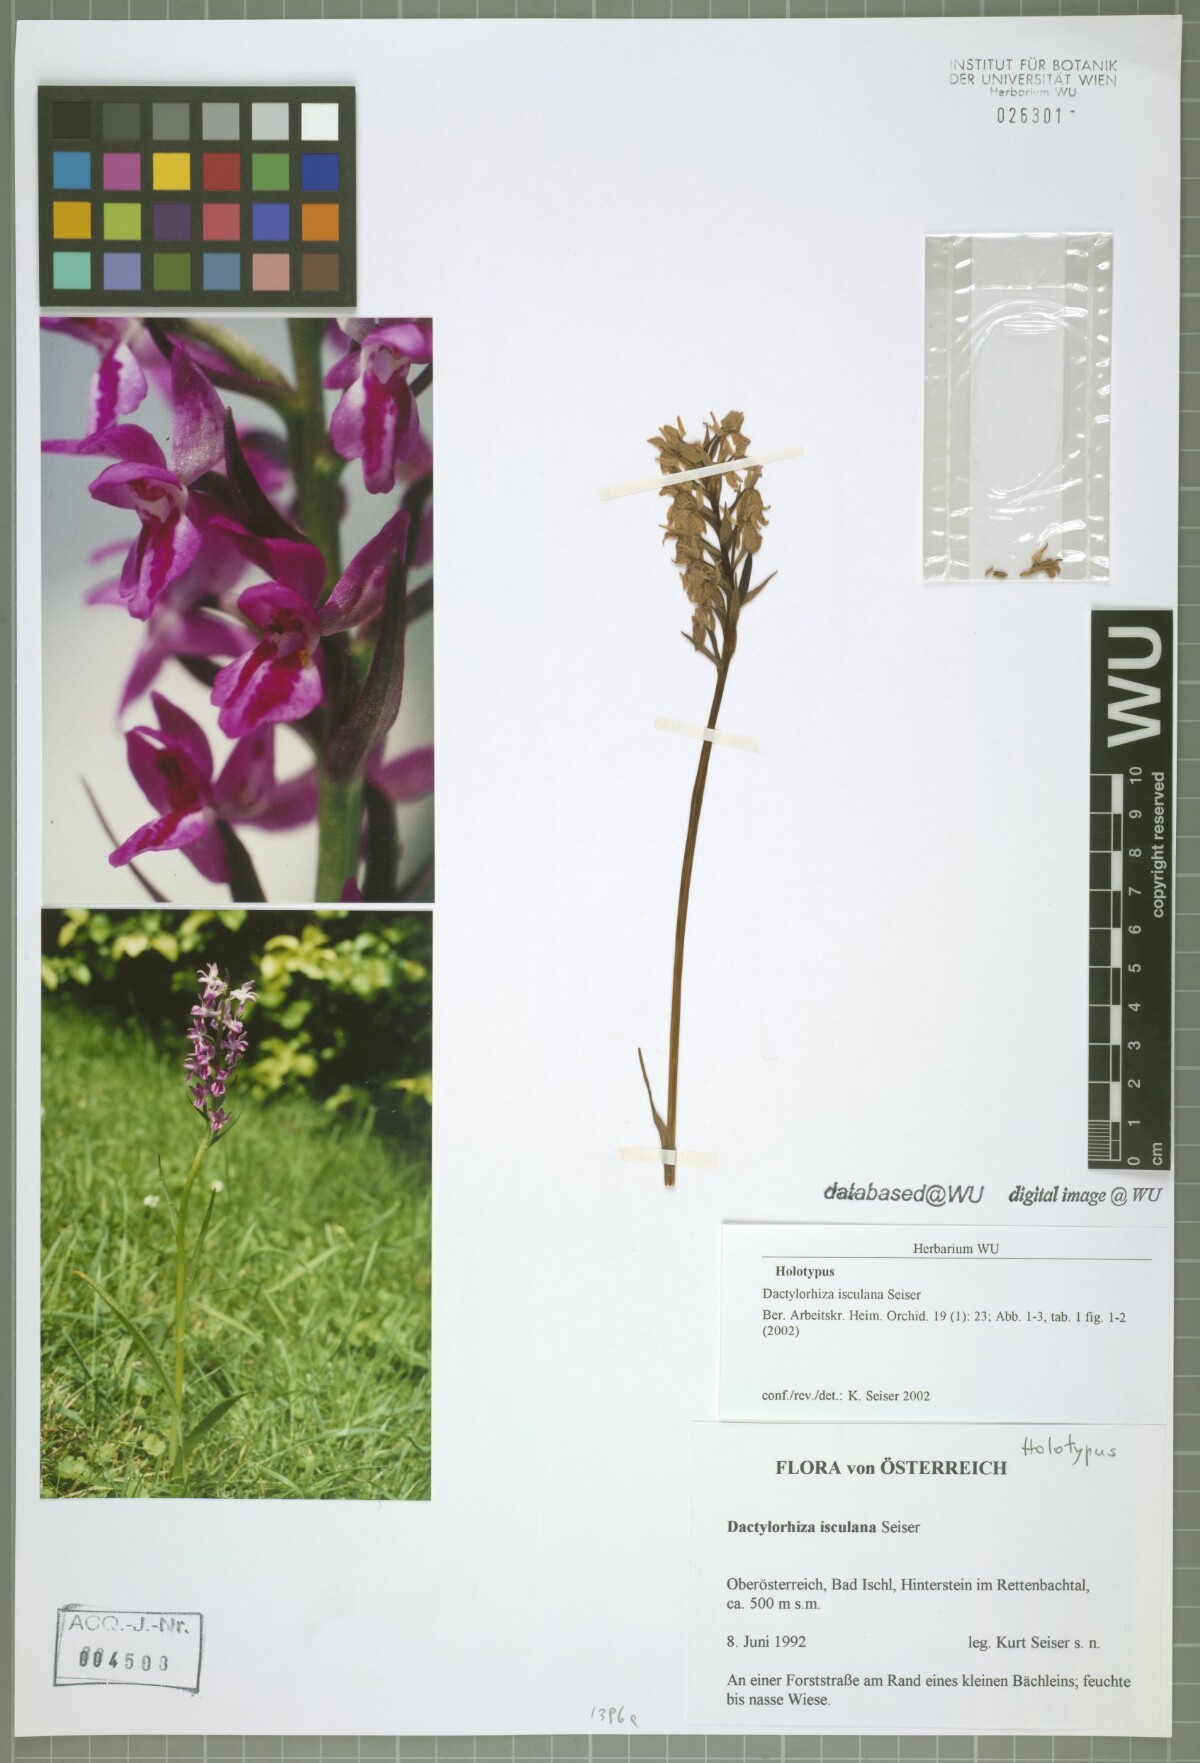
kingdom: Plantae
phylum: Tracheophyta
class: Liliopsida
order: Asparagales
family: Orchidaceae
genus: Dactylorhiza
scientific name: Dactylorhiza isculana
